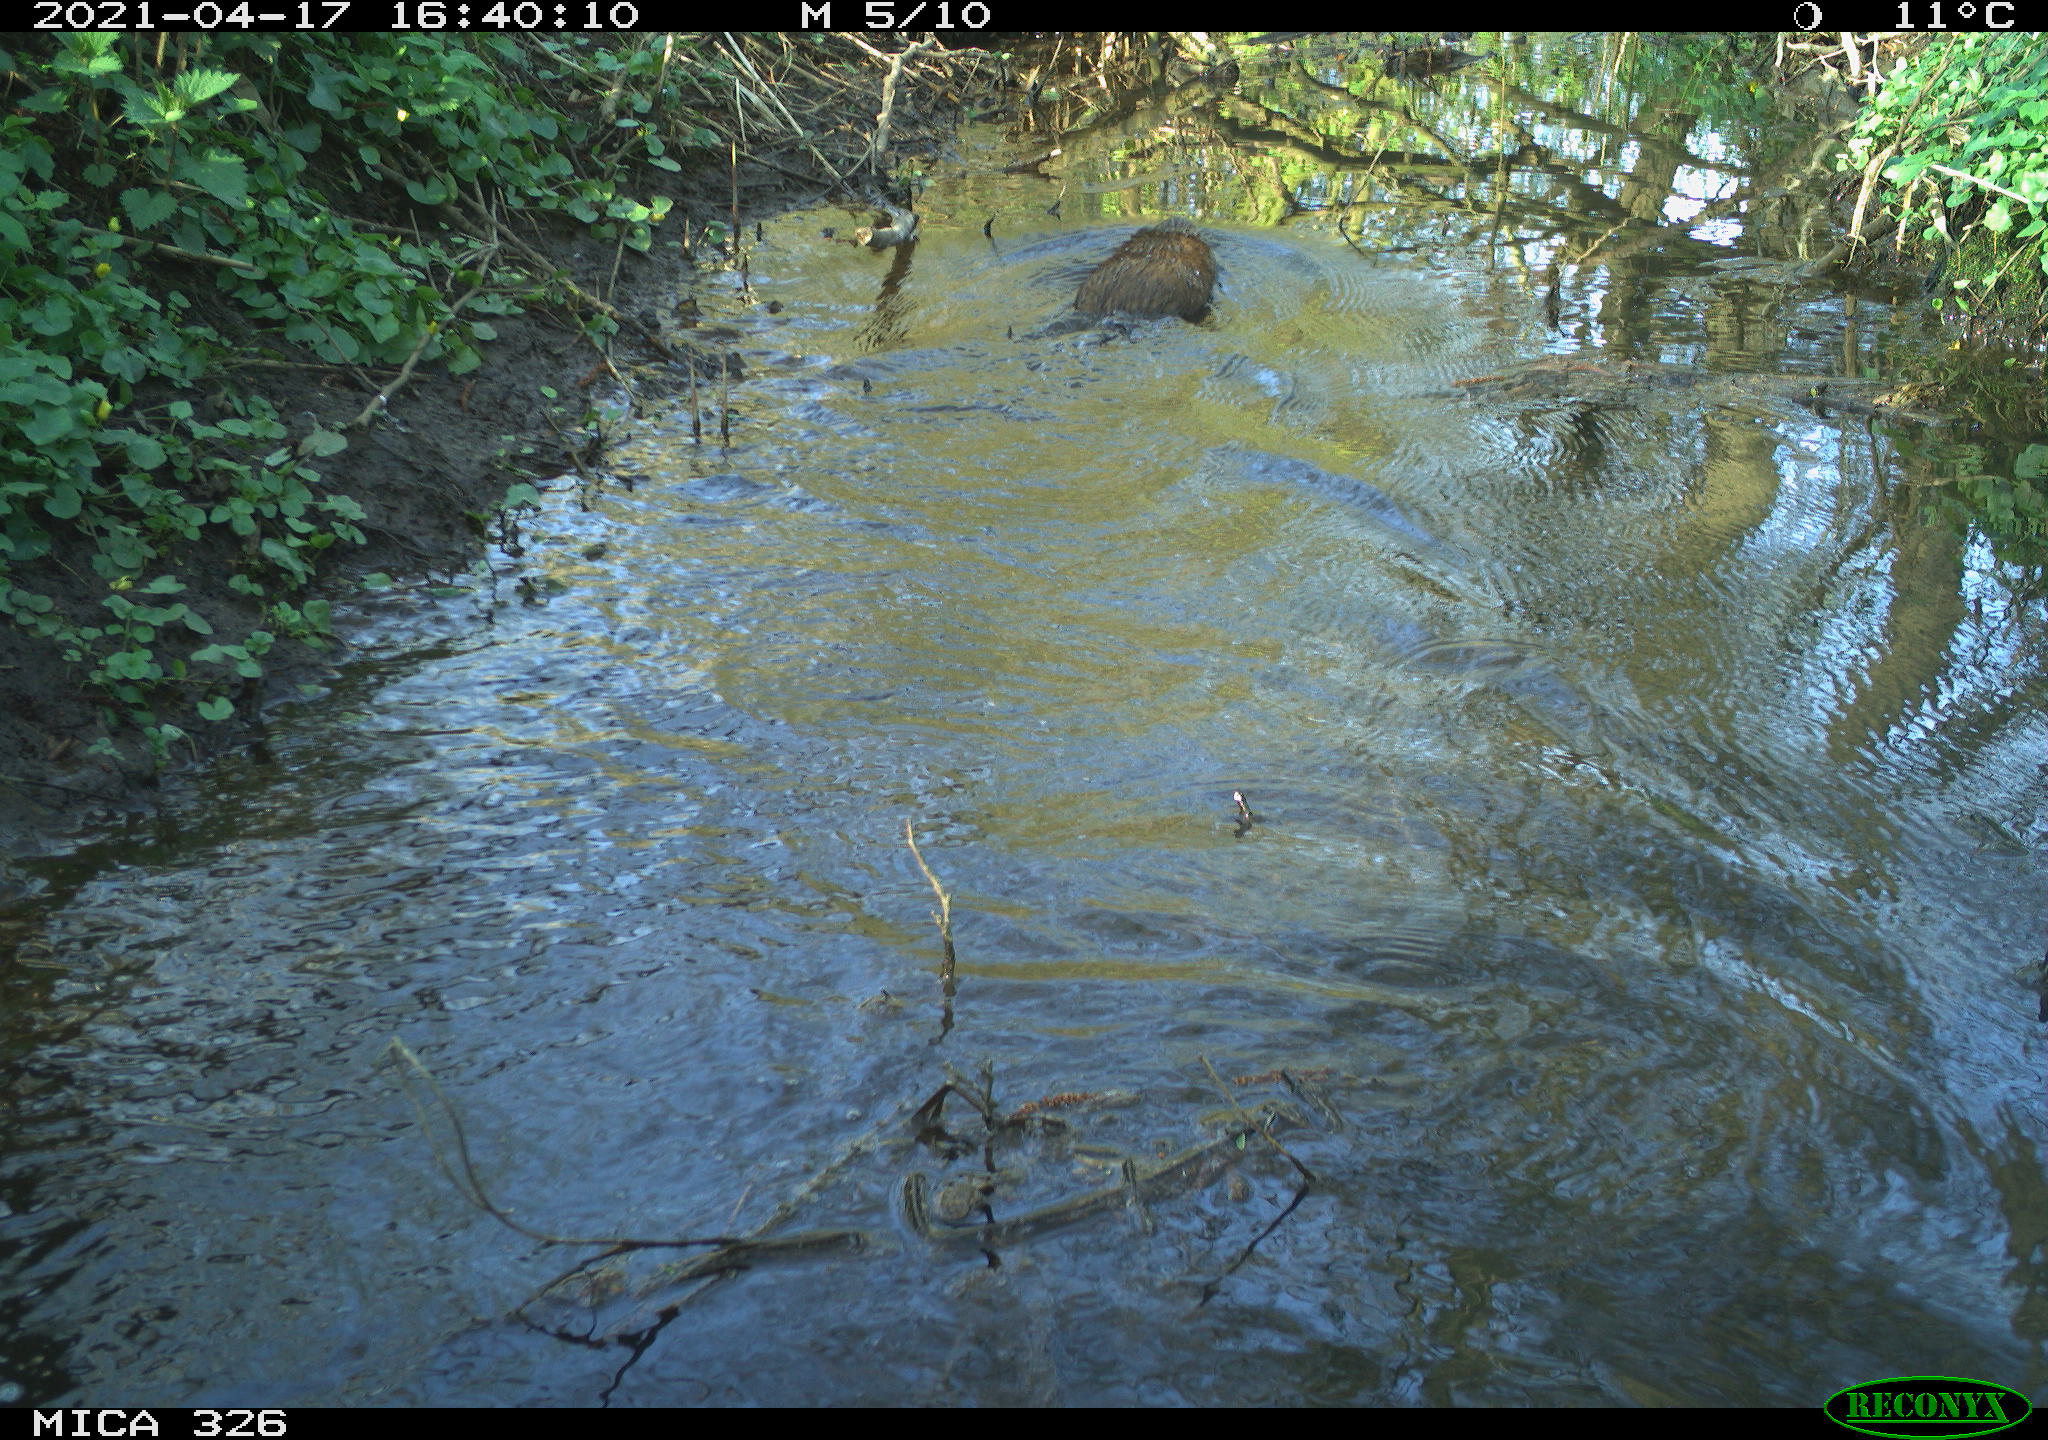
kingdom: Animalia
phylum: Chordata
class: Mammalia
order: Rodentia
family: Cricetidae
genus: Ondatra
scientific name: Ondatra zibethicus
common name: Muskrat
